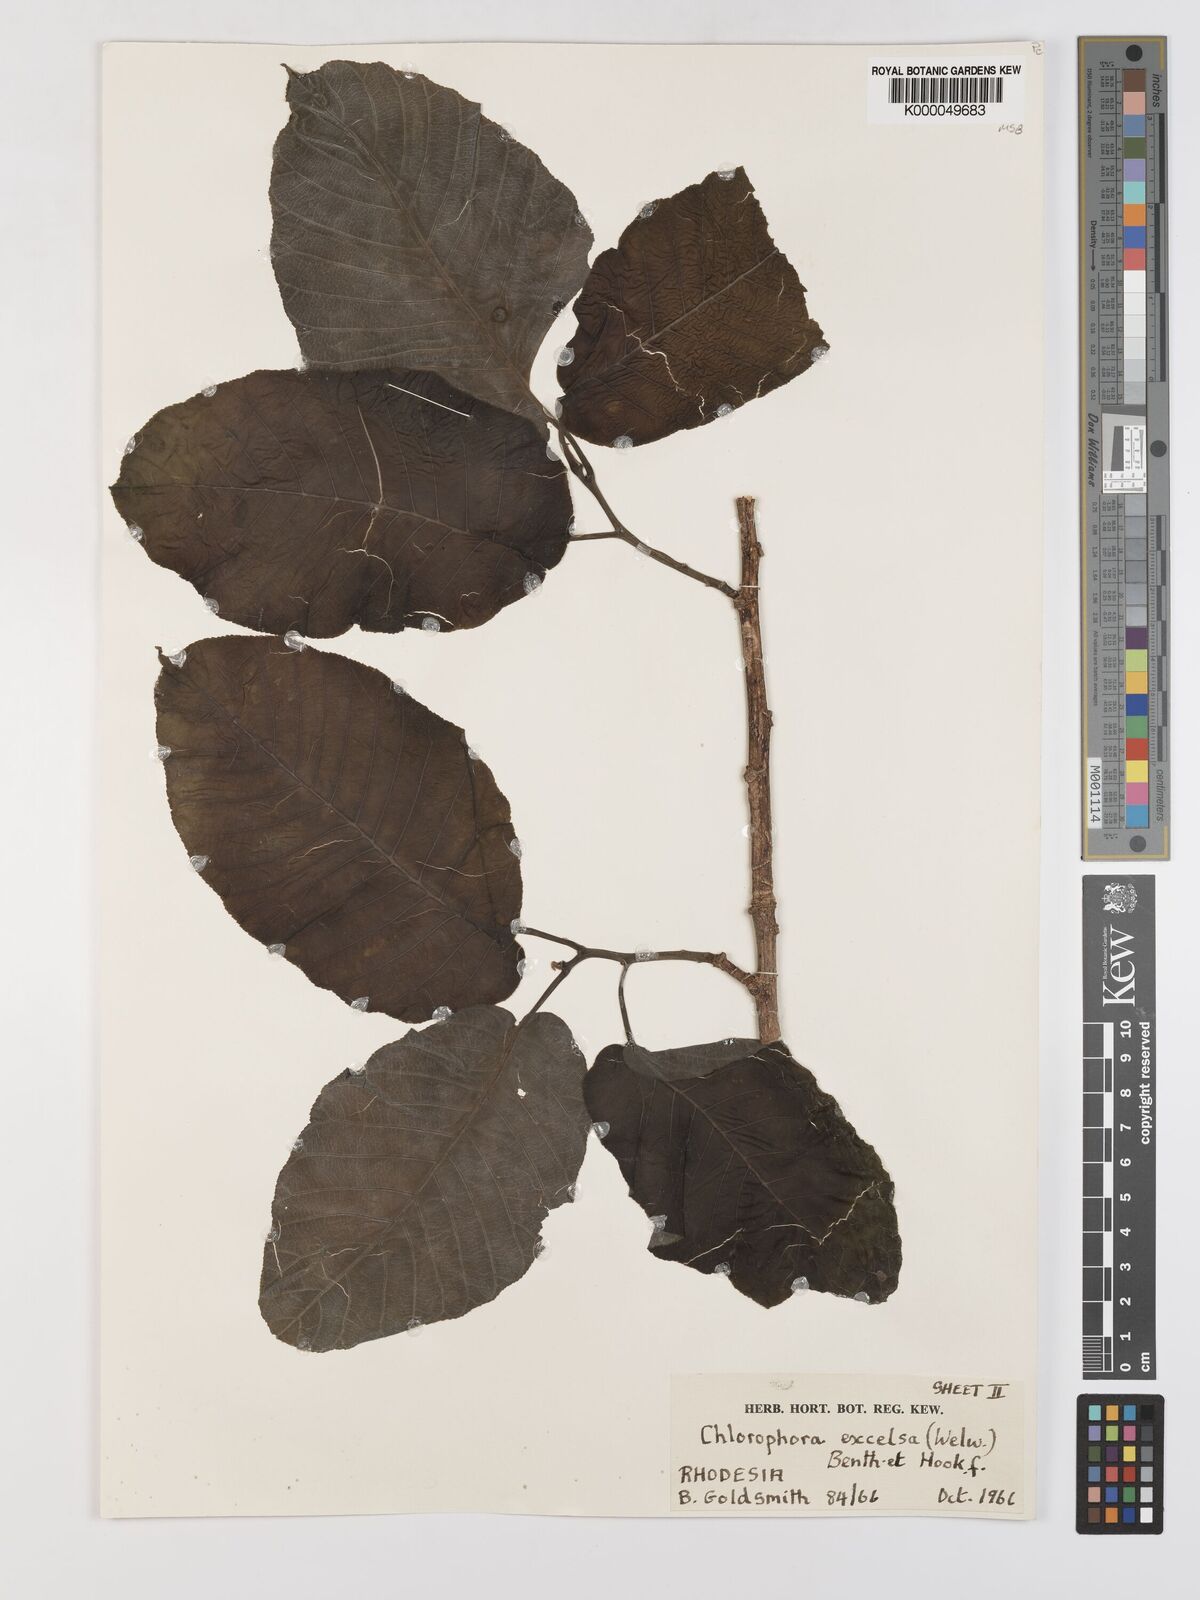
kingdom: Plantae
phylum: Tracheophyta
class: Magnoliopsida
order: Rosales
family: Moraceae
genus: Milicia
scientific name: Milicia excelsa
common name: African teak
